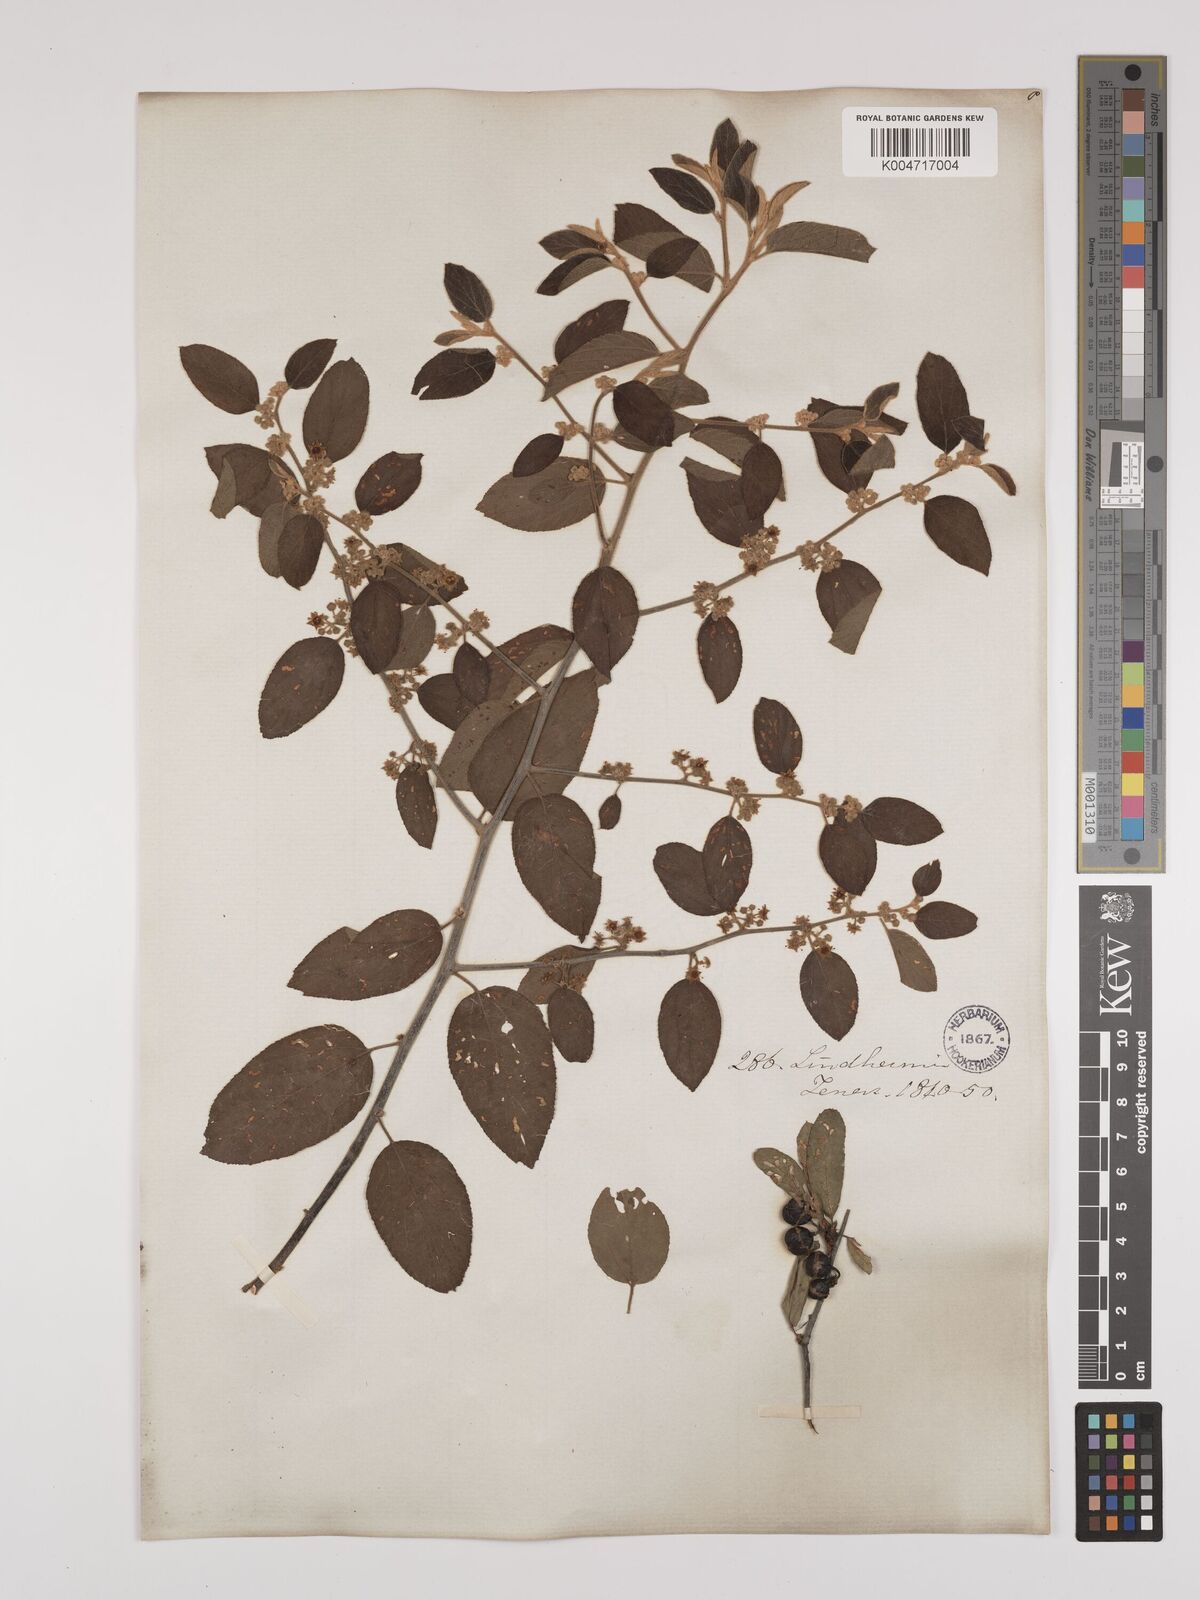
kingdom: Plantae
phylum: Tracheophyta
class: Magnoliopsida
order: Rosales
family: Rhamnaceae
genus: Colubrina
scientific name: Colubrina
